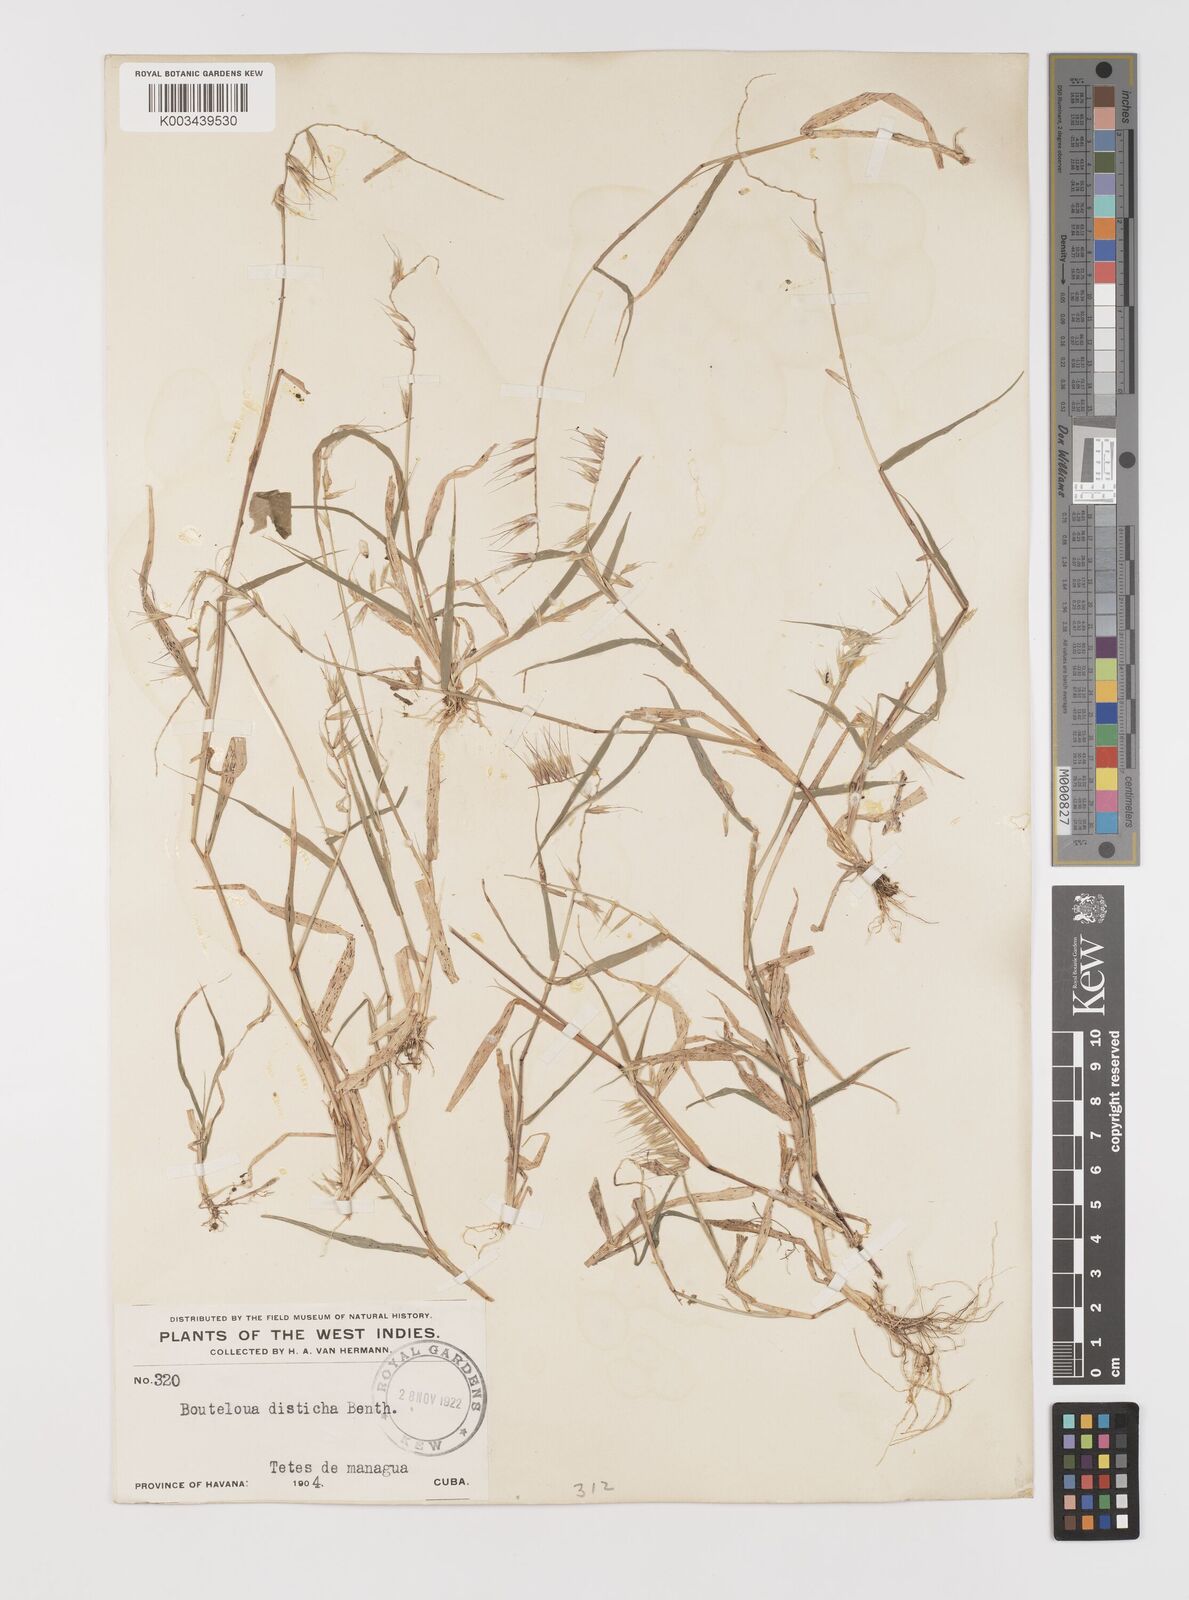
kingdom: Plantae
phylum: Tracheophyta
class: Liliopsida
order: Poales
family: Poaceae
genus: Bouteloua
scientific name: Bouteloua disticha
